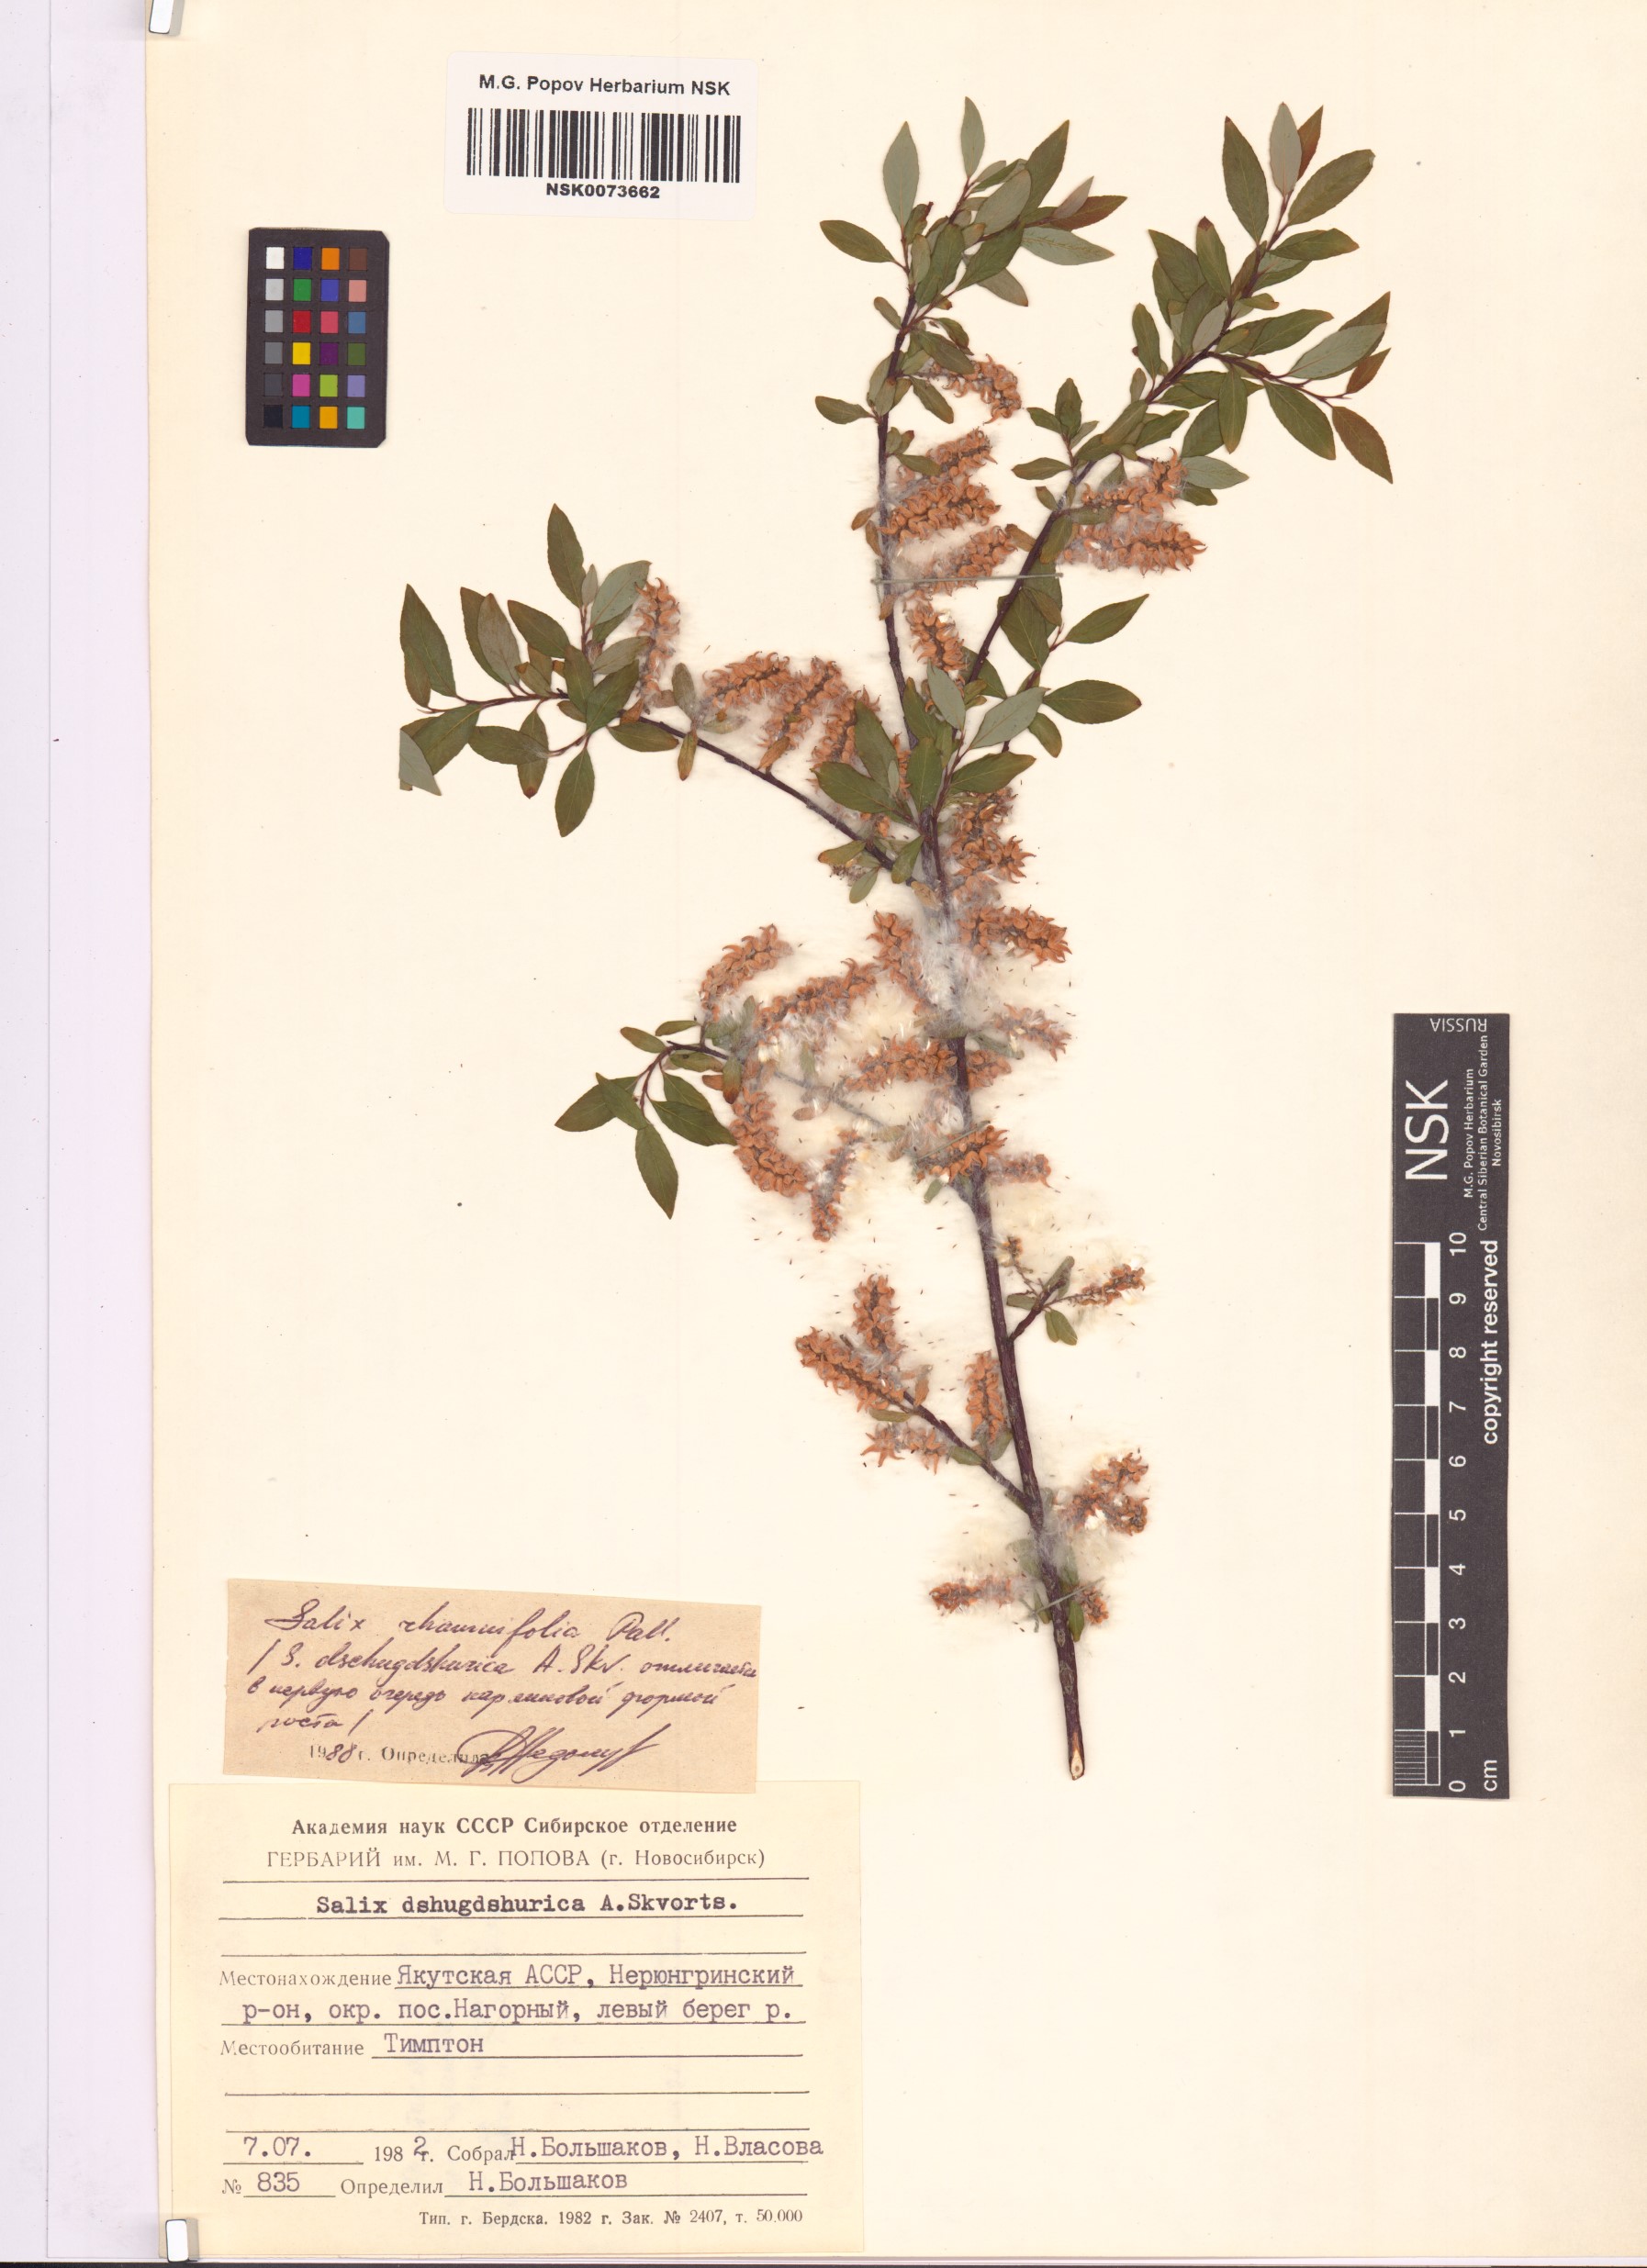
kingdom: Plantae
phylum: Tracheophyta
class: Magnoliopsida
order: Malpighiales
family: Salicaceae
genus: Salix
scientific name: Salix rhamnifolia
